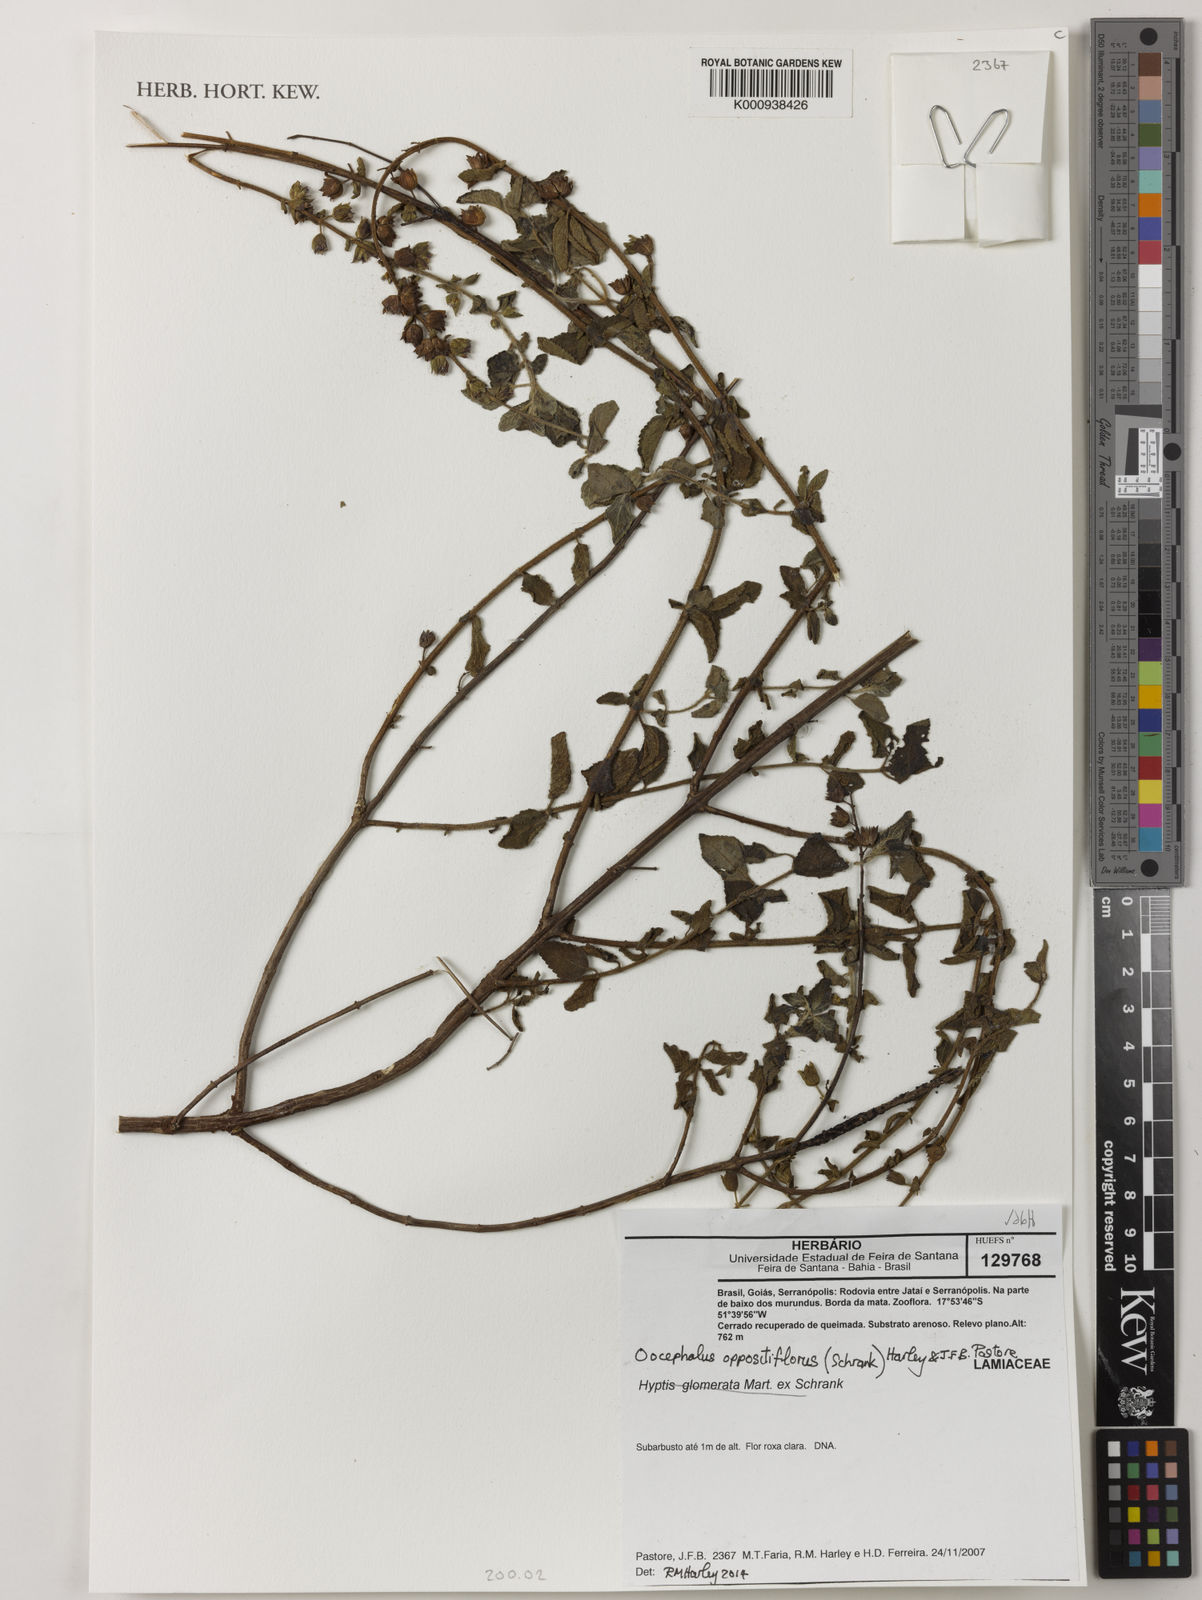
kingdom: Plantae
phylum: Tracheophyta
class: Magnoliopsida
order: Lamiales
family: Lamiaceae
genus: Oocephalus
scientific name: Oocephalus oppositiflorus
